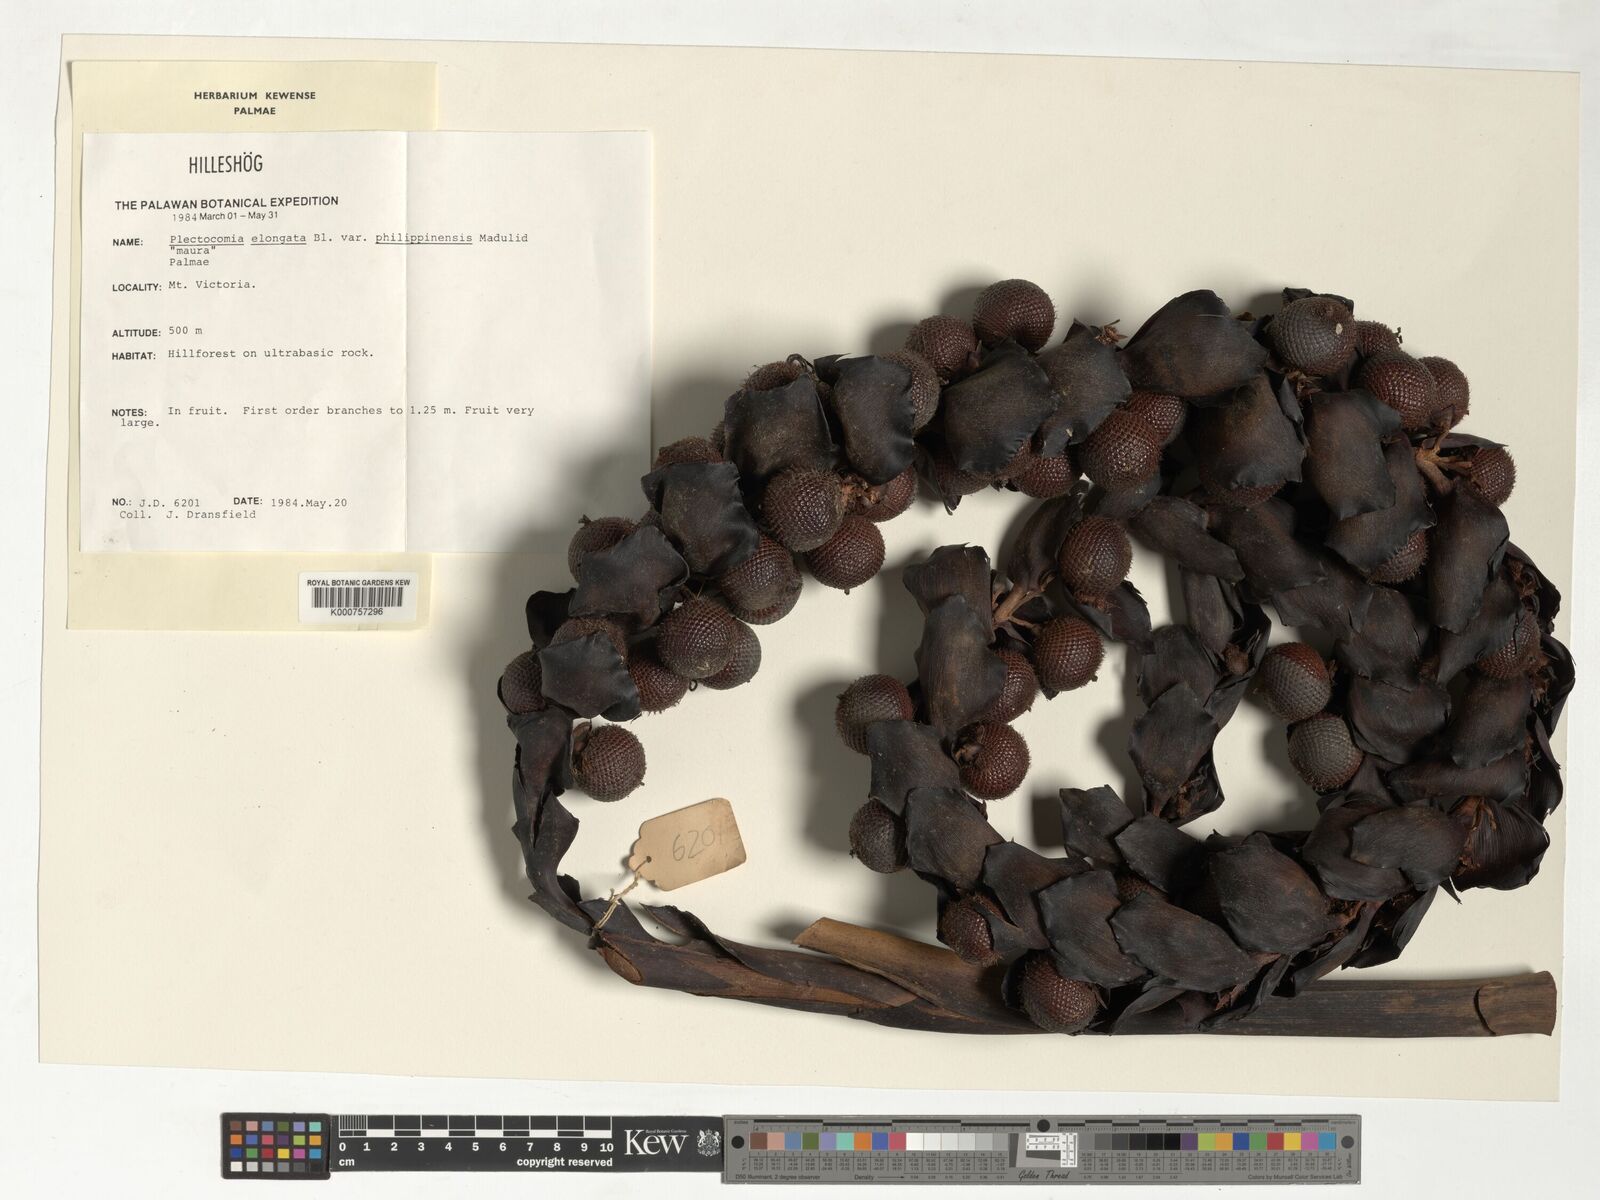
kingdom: Plantae
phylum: Tracheophyta
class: Liliopsida
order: Arecales
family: Arecaceae
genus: Plectocomia
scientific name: Plectocomia elongata
